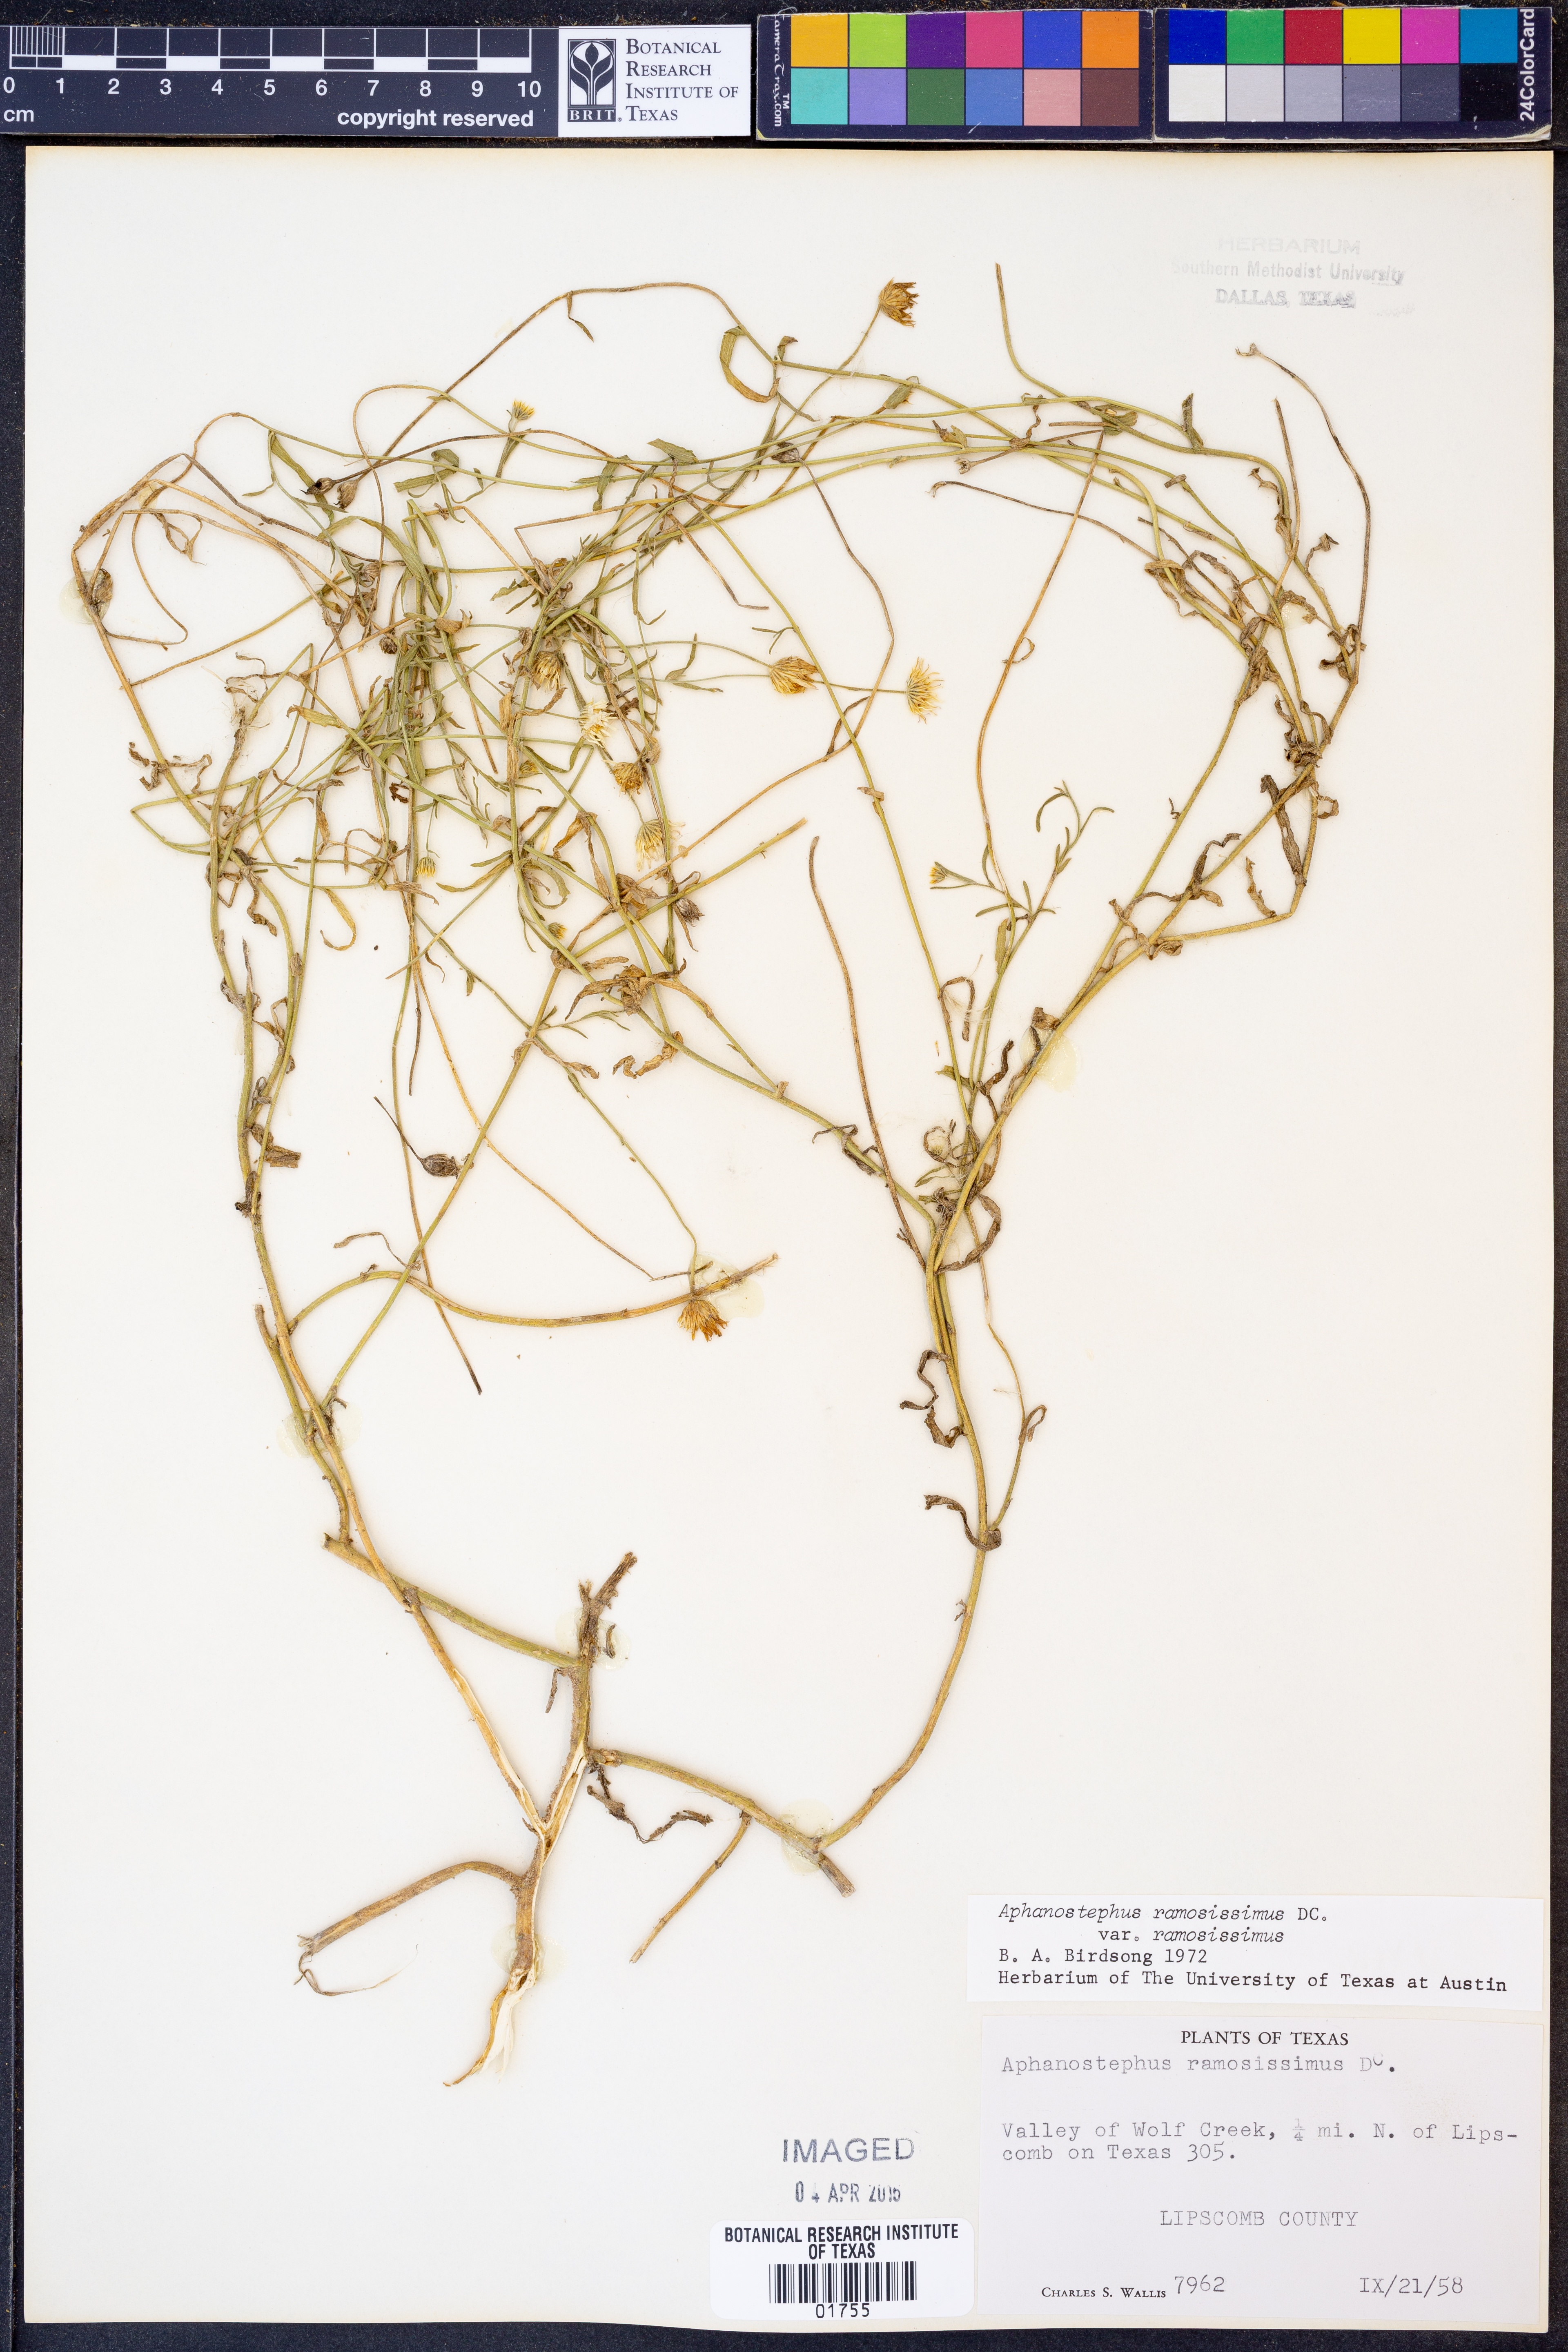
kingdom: Plantae
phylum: Tracheophyta
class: Magnoliopsida
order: Asterales
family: Asteraceae
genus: Aphanostephus
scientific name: Aphanostephus ramosissimus
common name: Plains lazy daisy
